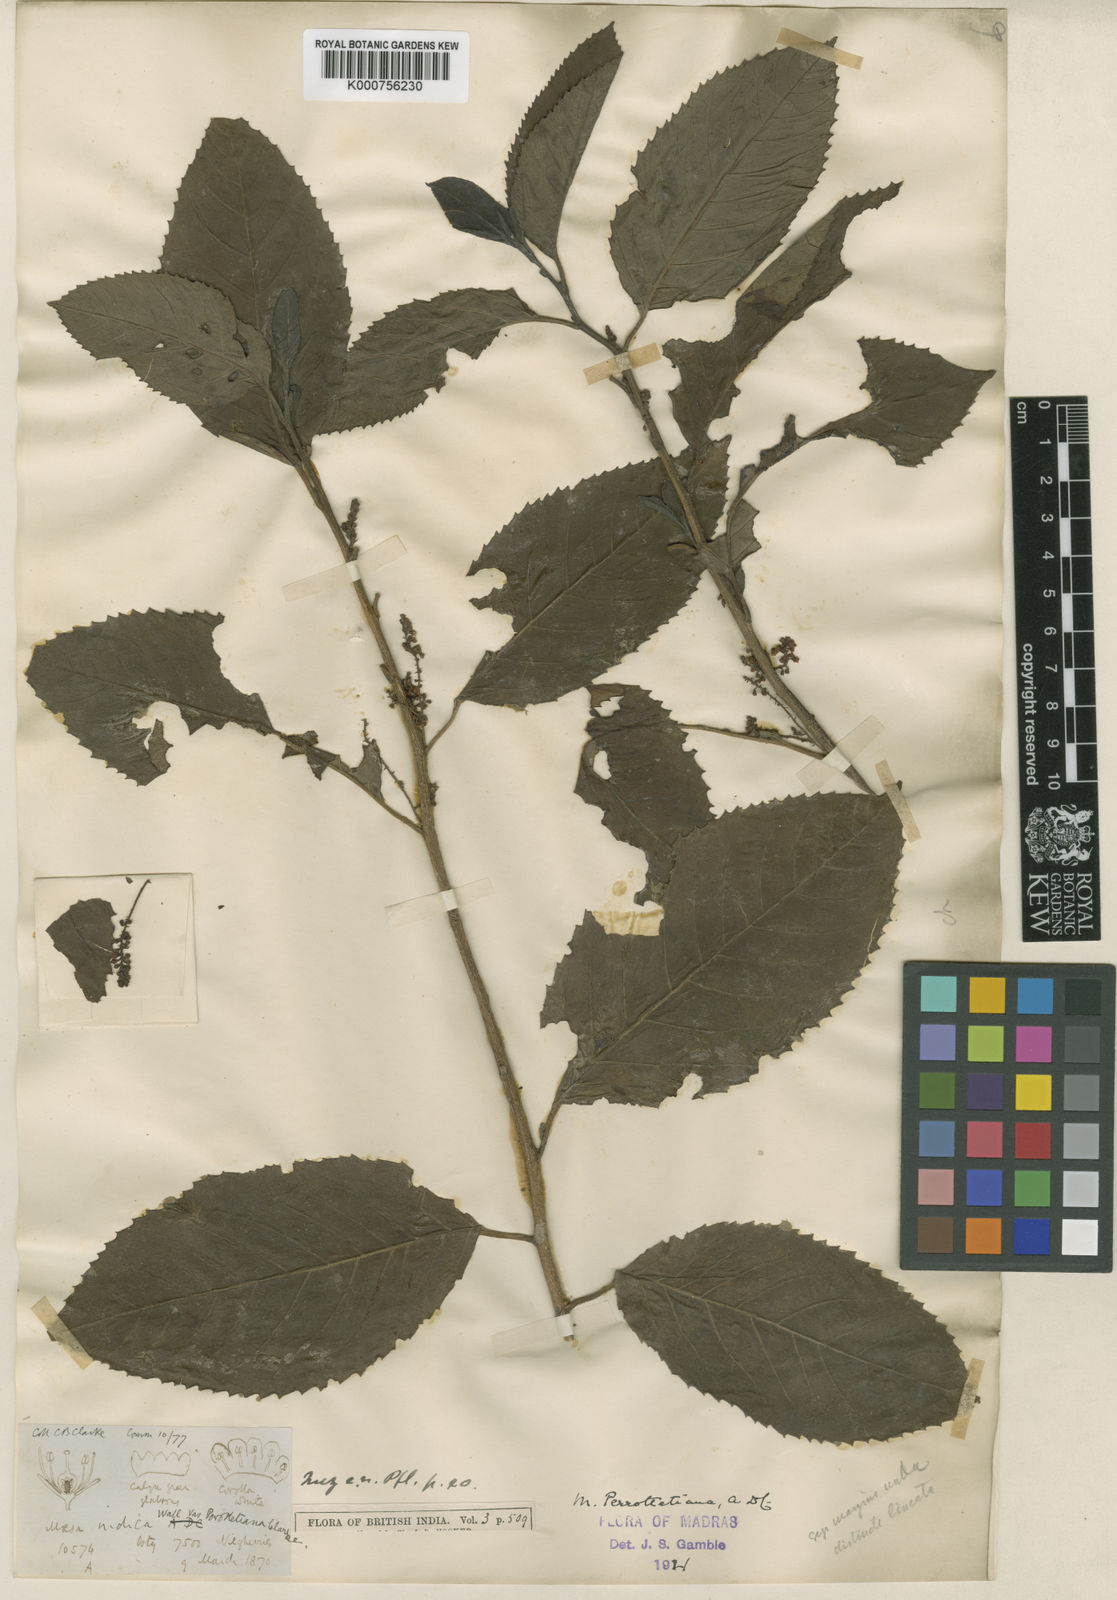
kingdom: Plantae
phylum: Tracheophyta
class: Magnoliopsida
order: Ericales
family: Primulaceae
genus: Maesa
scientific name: Maesa indica
